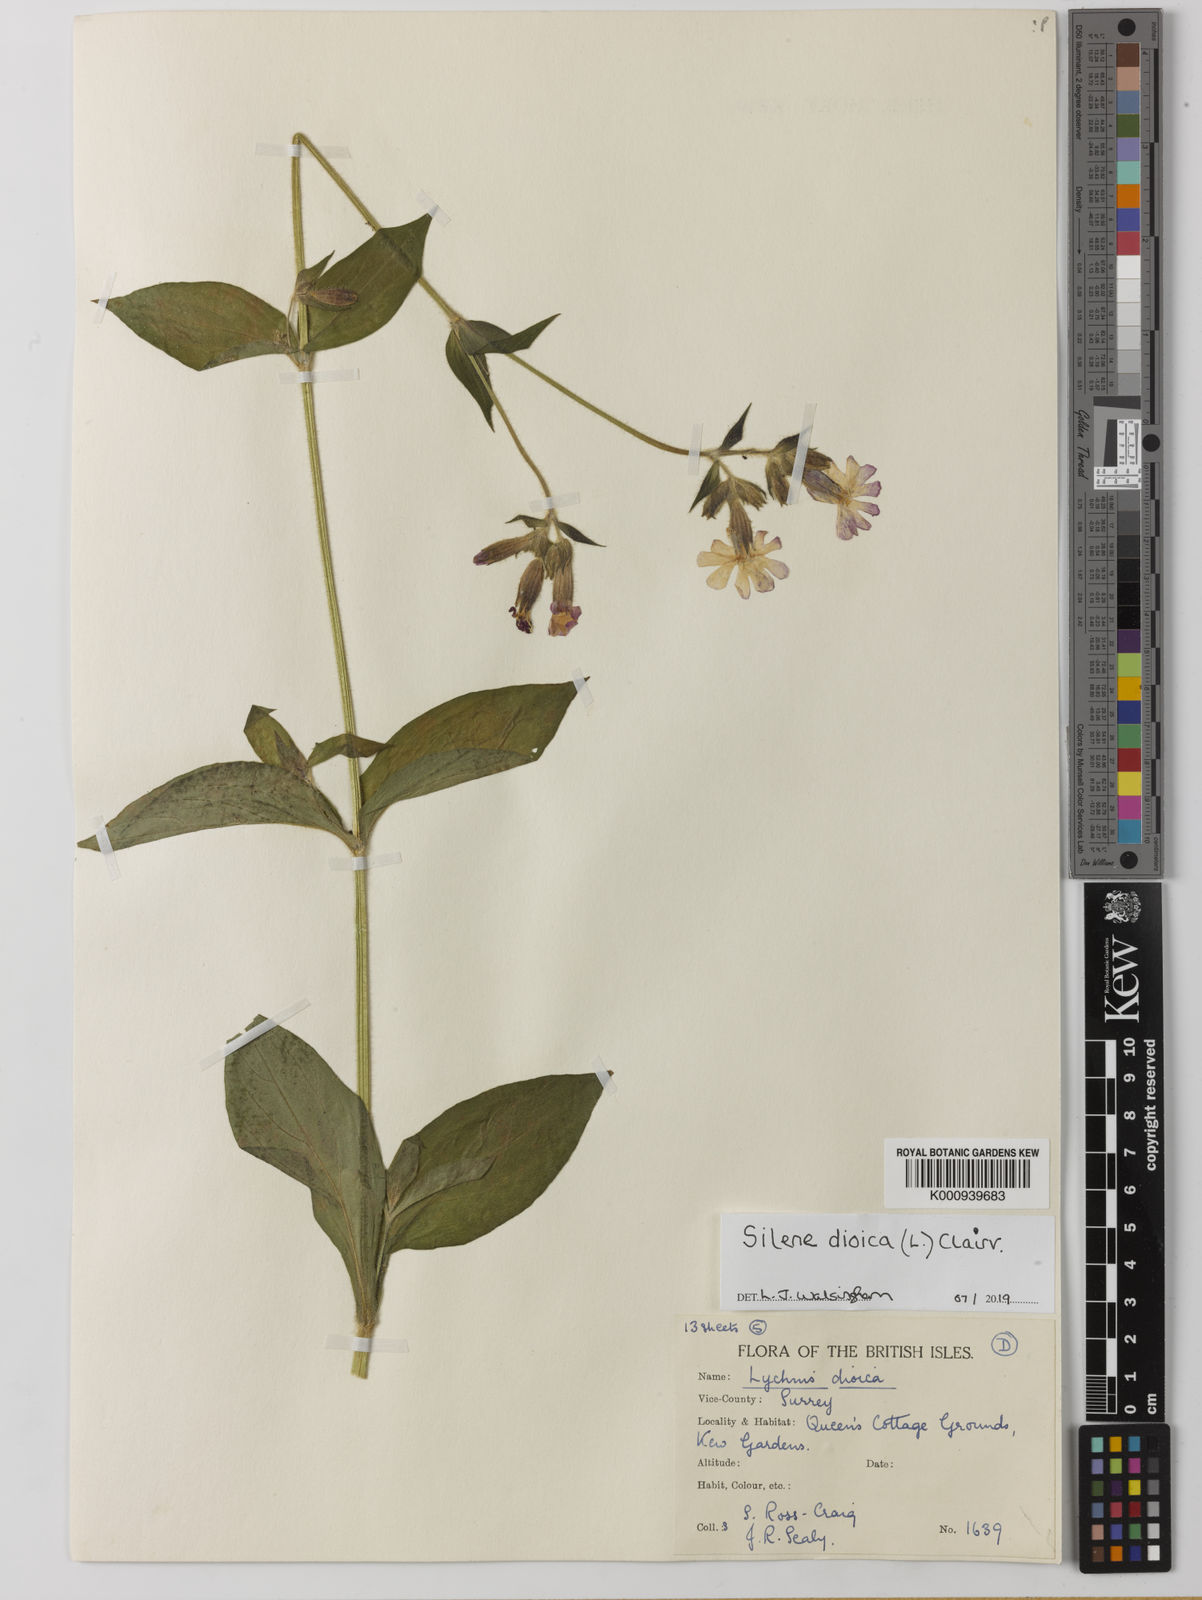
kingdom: Plantae
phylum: Tracheophyta
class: Magnoliopsida
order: Caryophyllales
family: Caryophyllaceae
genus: Silene
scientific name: Silene dioica
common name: Red campion
